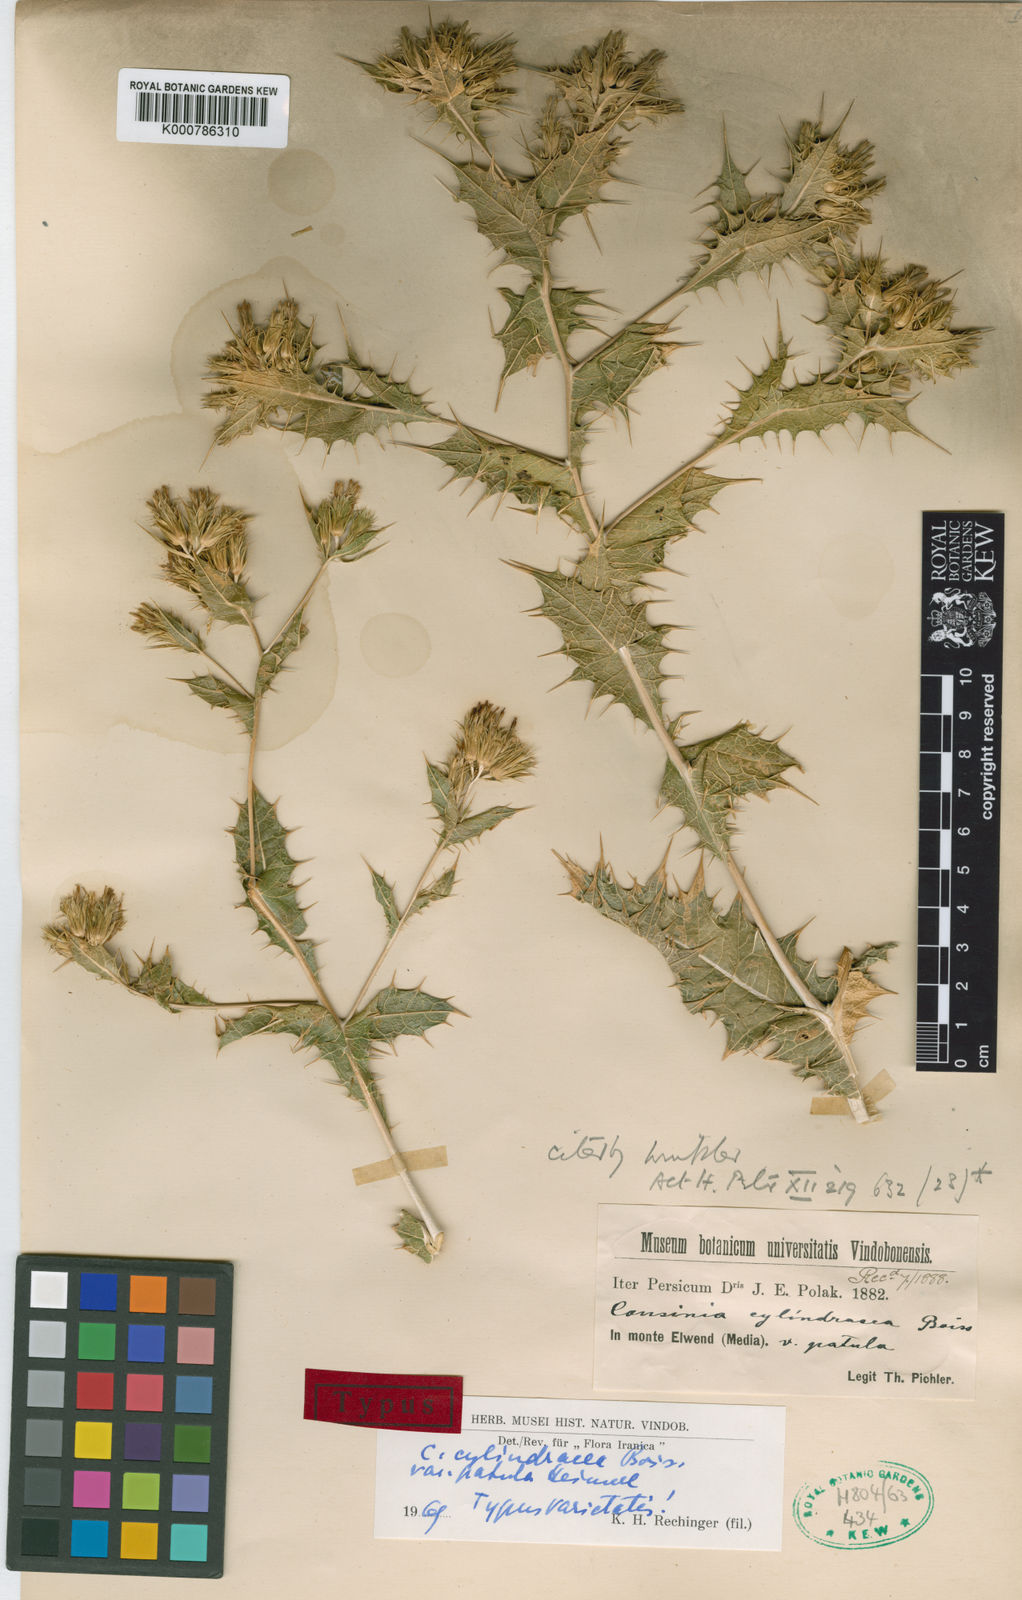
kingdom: Plantae
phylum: Tracheophyta
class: Magnoliopsida
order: Asterales
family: Asteraceae
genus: Cousinia
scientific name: Cousinia cylindracea
